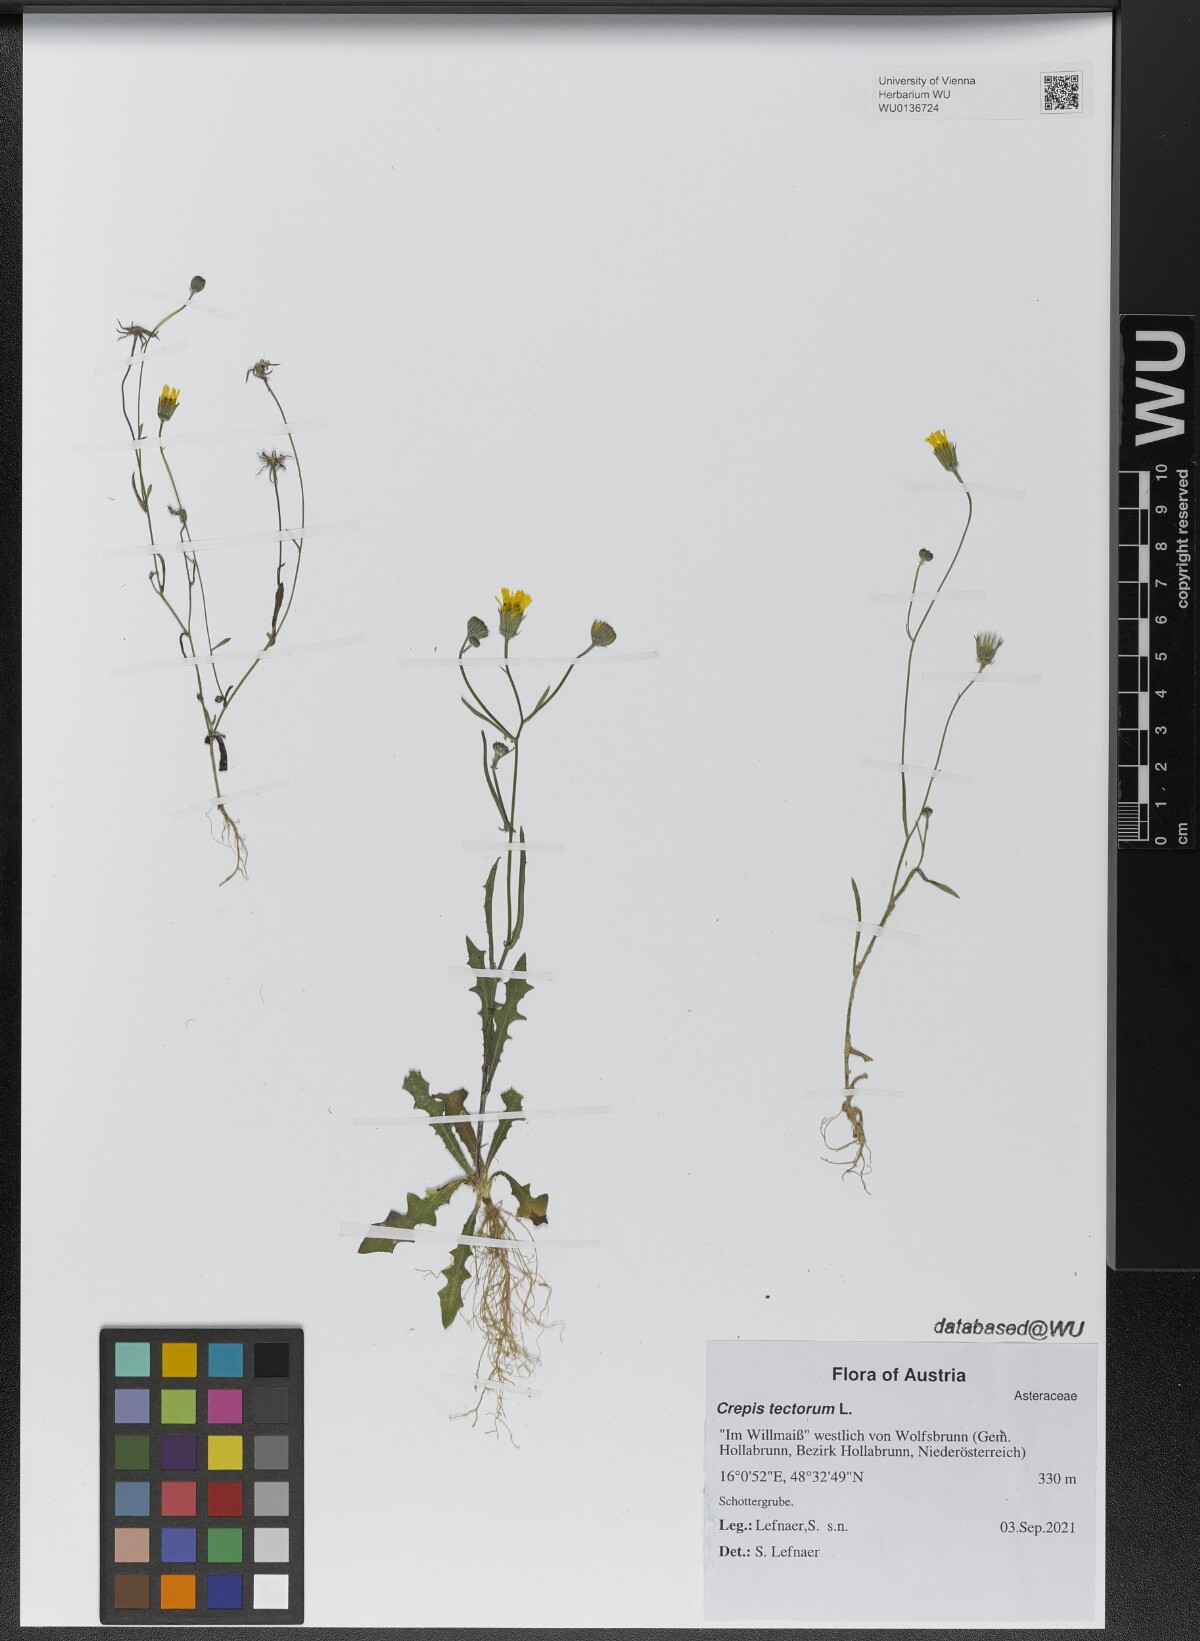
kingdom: Plantae
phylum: Tracheophyta
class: Magnoliopsida
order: Asterales
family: Asteraceae
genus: Crepis
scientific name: Crepis tectorum
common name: Narrow-leaved hawk's-beard
